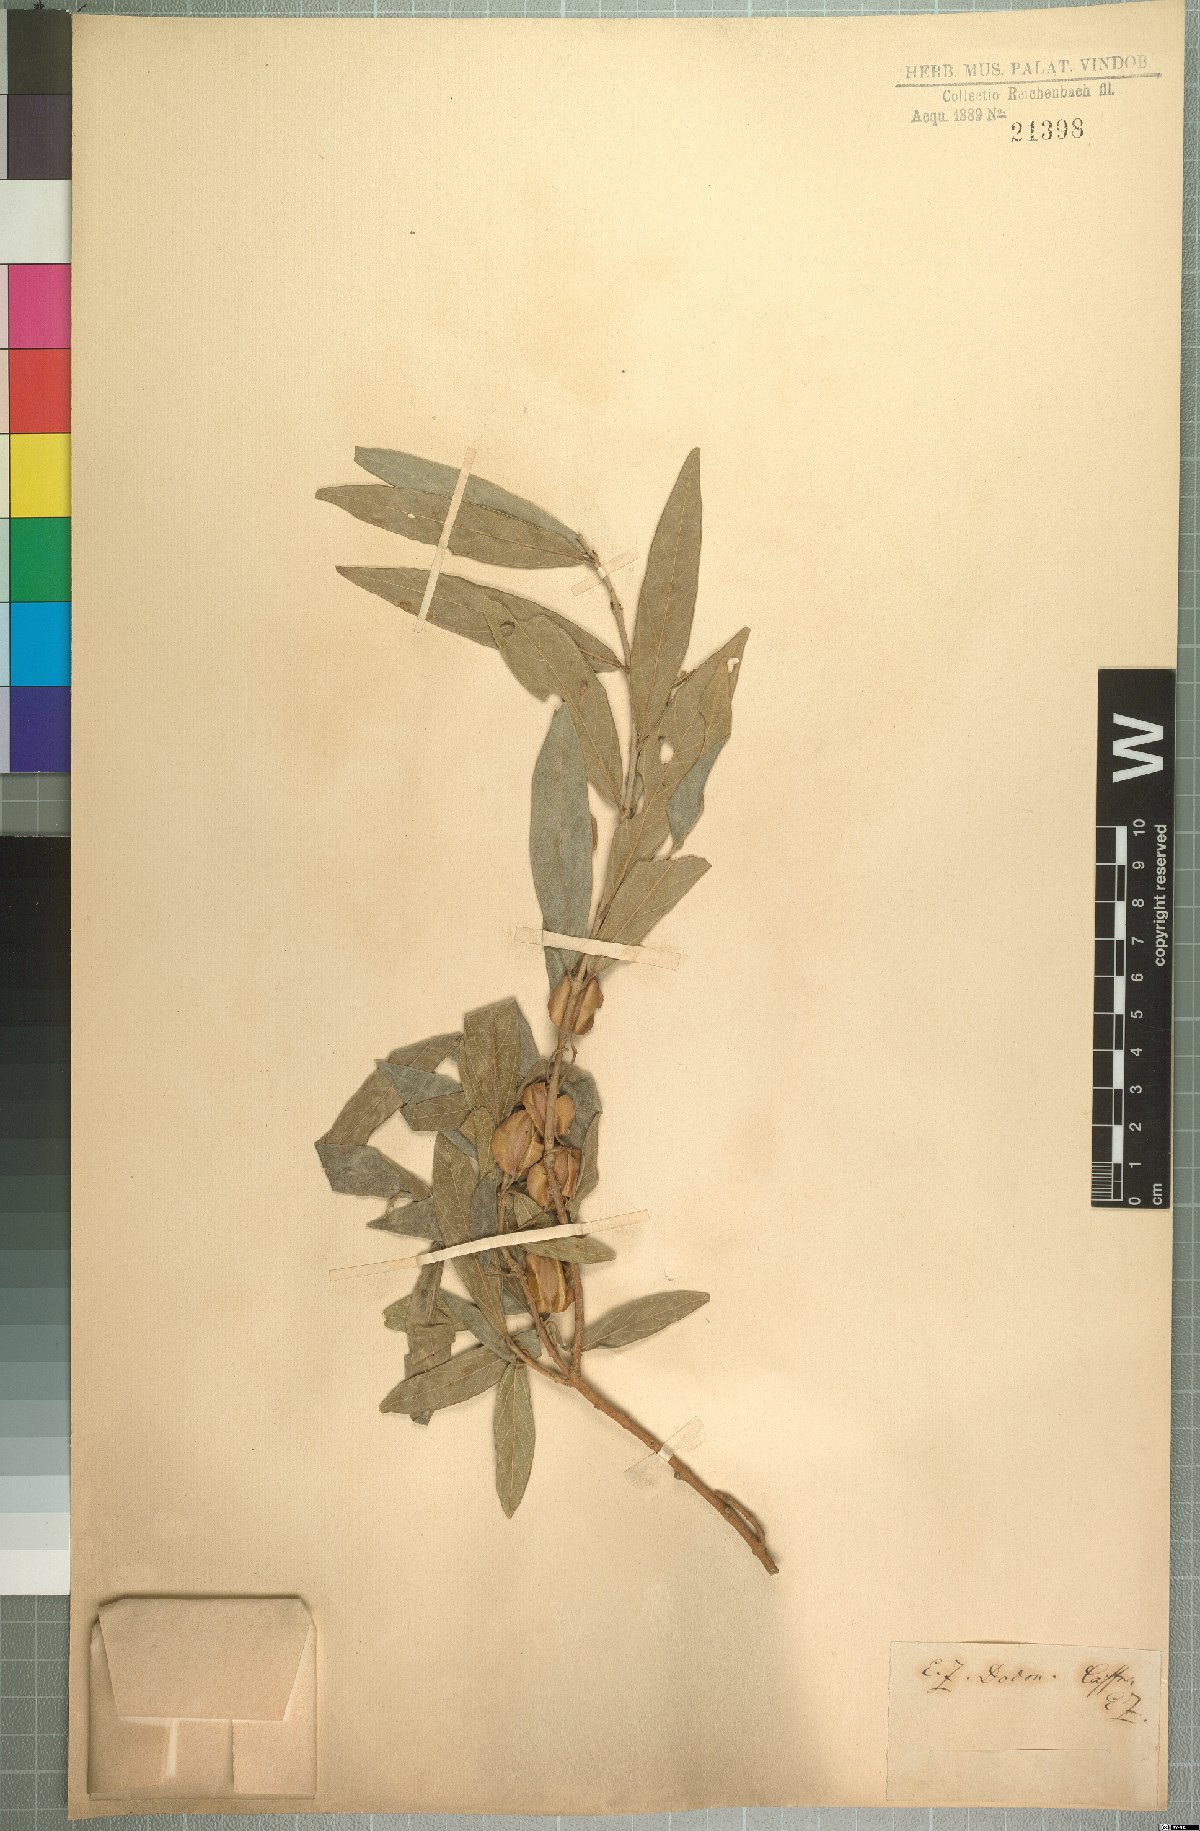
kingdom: Plantae
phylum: Tracheophyta
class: Magnoliopsida
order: Myrtales
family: Combretaceae
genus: Combretum
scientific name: Combretum caffrum
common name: Cape bushwillow
